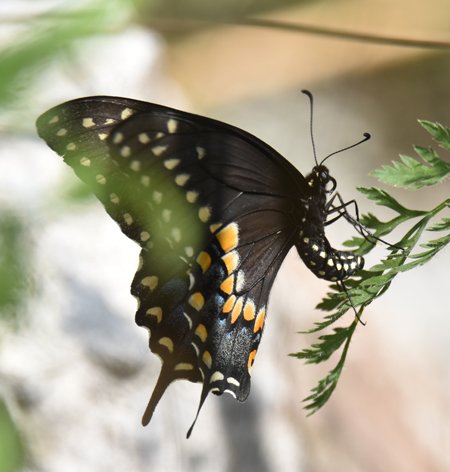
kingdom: Animalia
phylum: Arthropoda
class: Insecta
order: Lepidoptera
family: Papilionidae
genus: Papilio
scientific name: Papilio polyxenes
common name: Black Swallowtail
